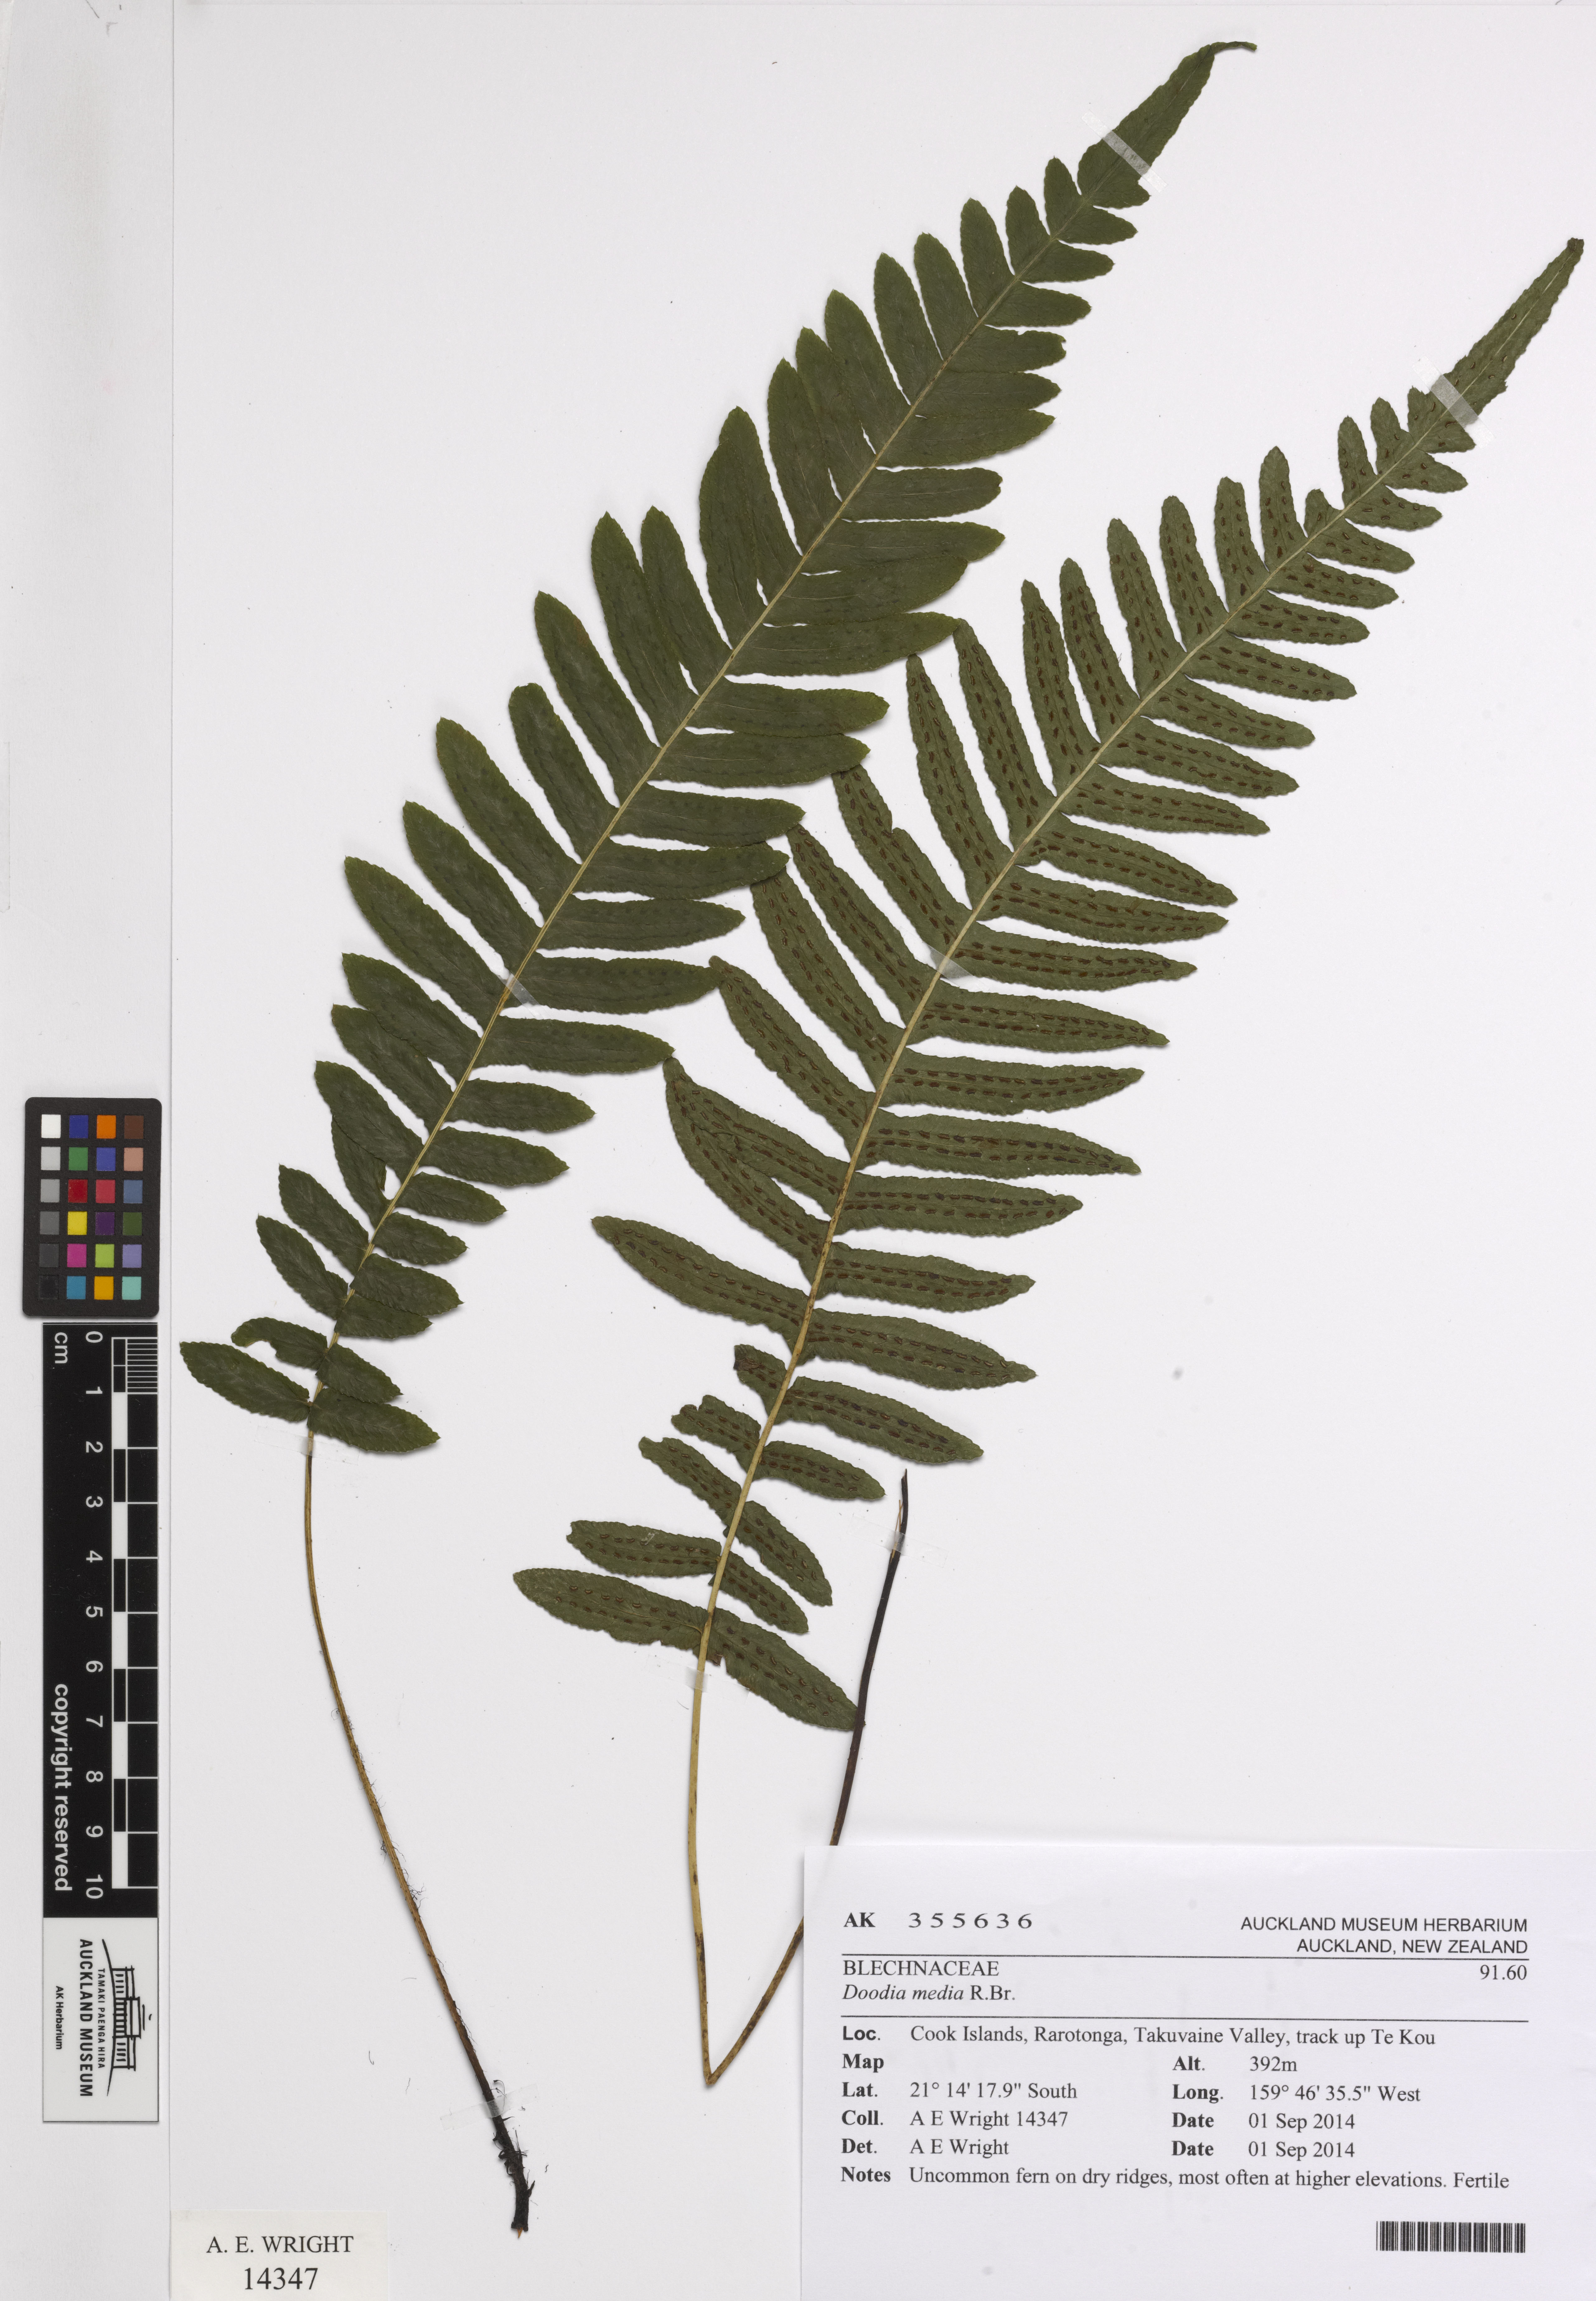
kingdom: Plantae
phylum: Tracheophyta
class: Polypodiopsida
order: Polypodiales
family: Blechnaceae
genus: Doodia
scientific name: Doodia
